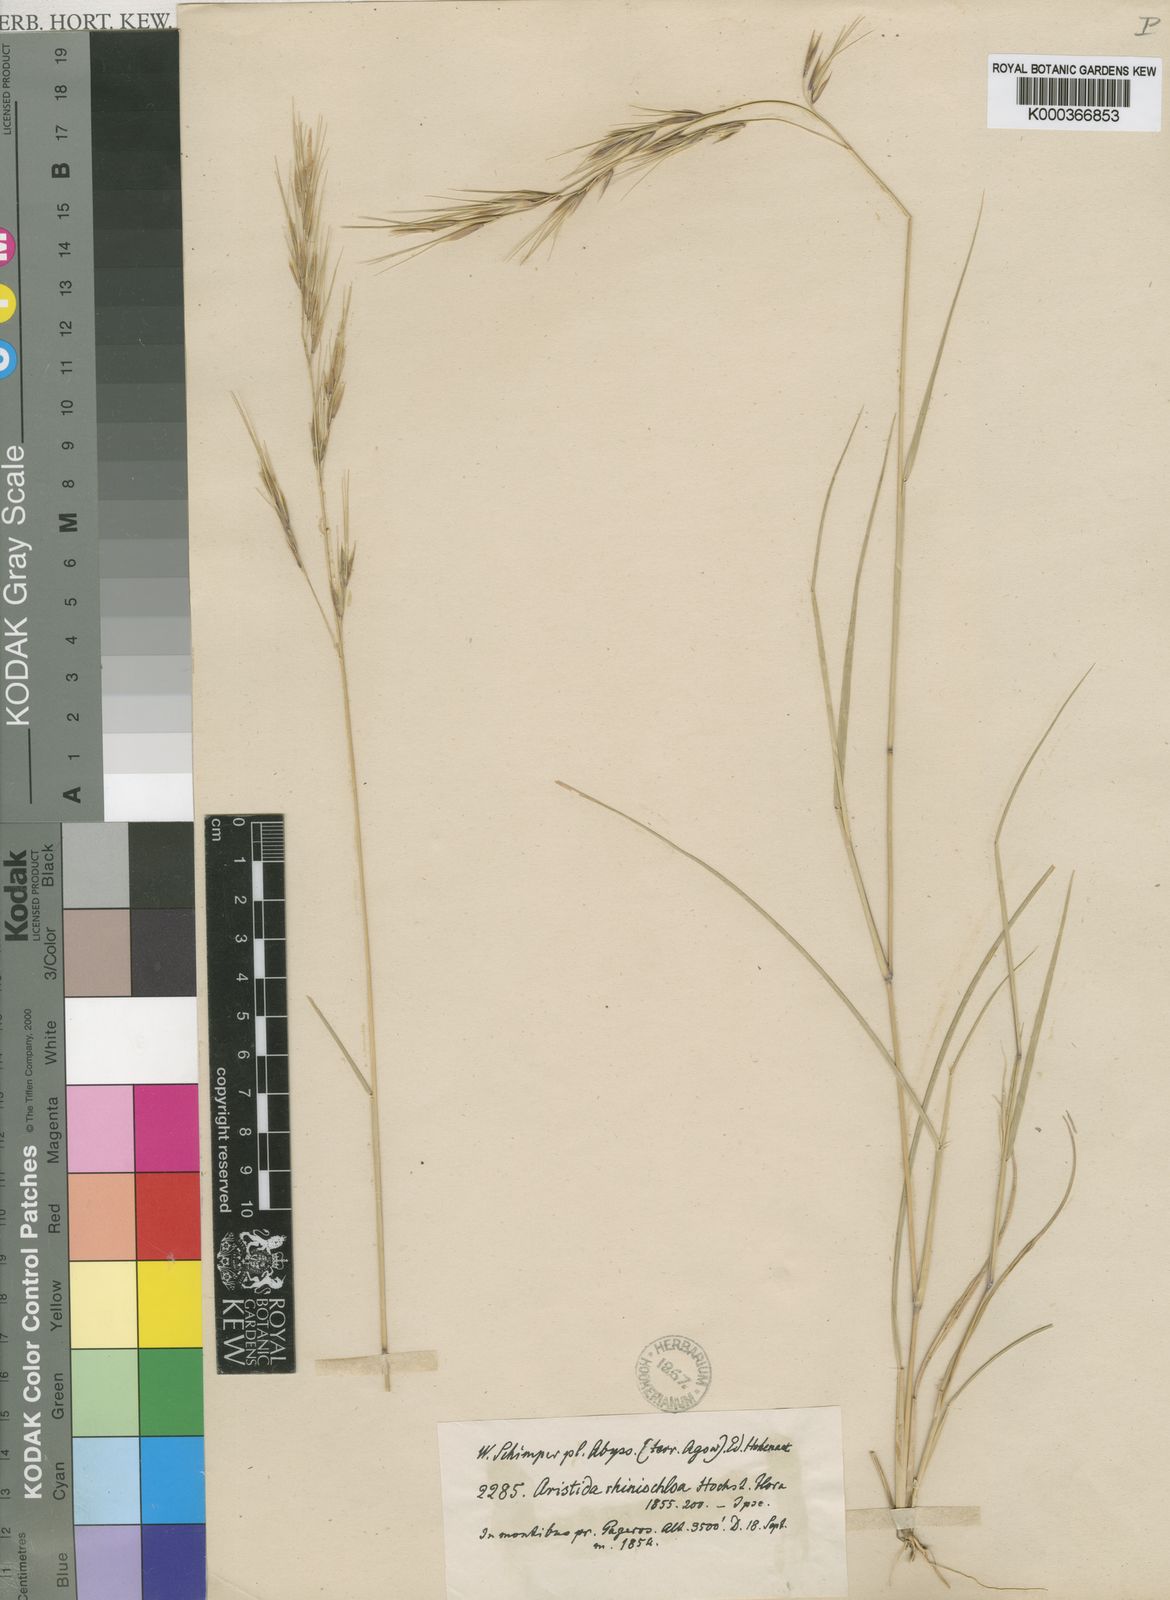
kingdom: Plantae
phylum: Tracheophyta
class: Liliopsida
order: Poales
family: Poaceae
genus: Aristida
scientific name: Aristida rhiniochloa
